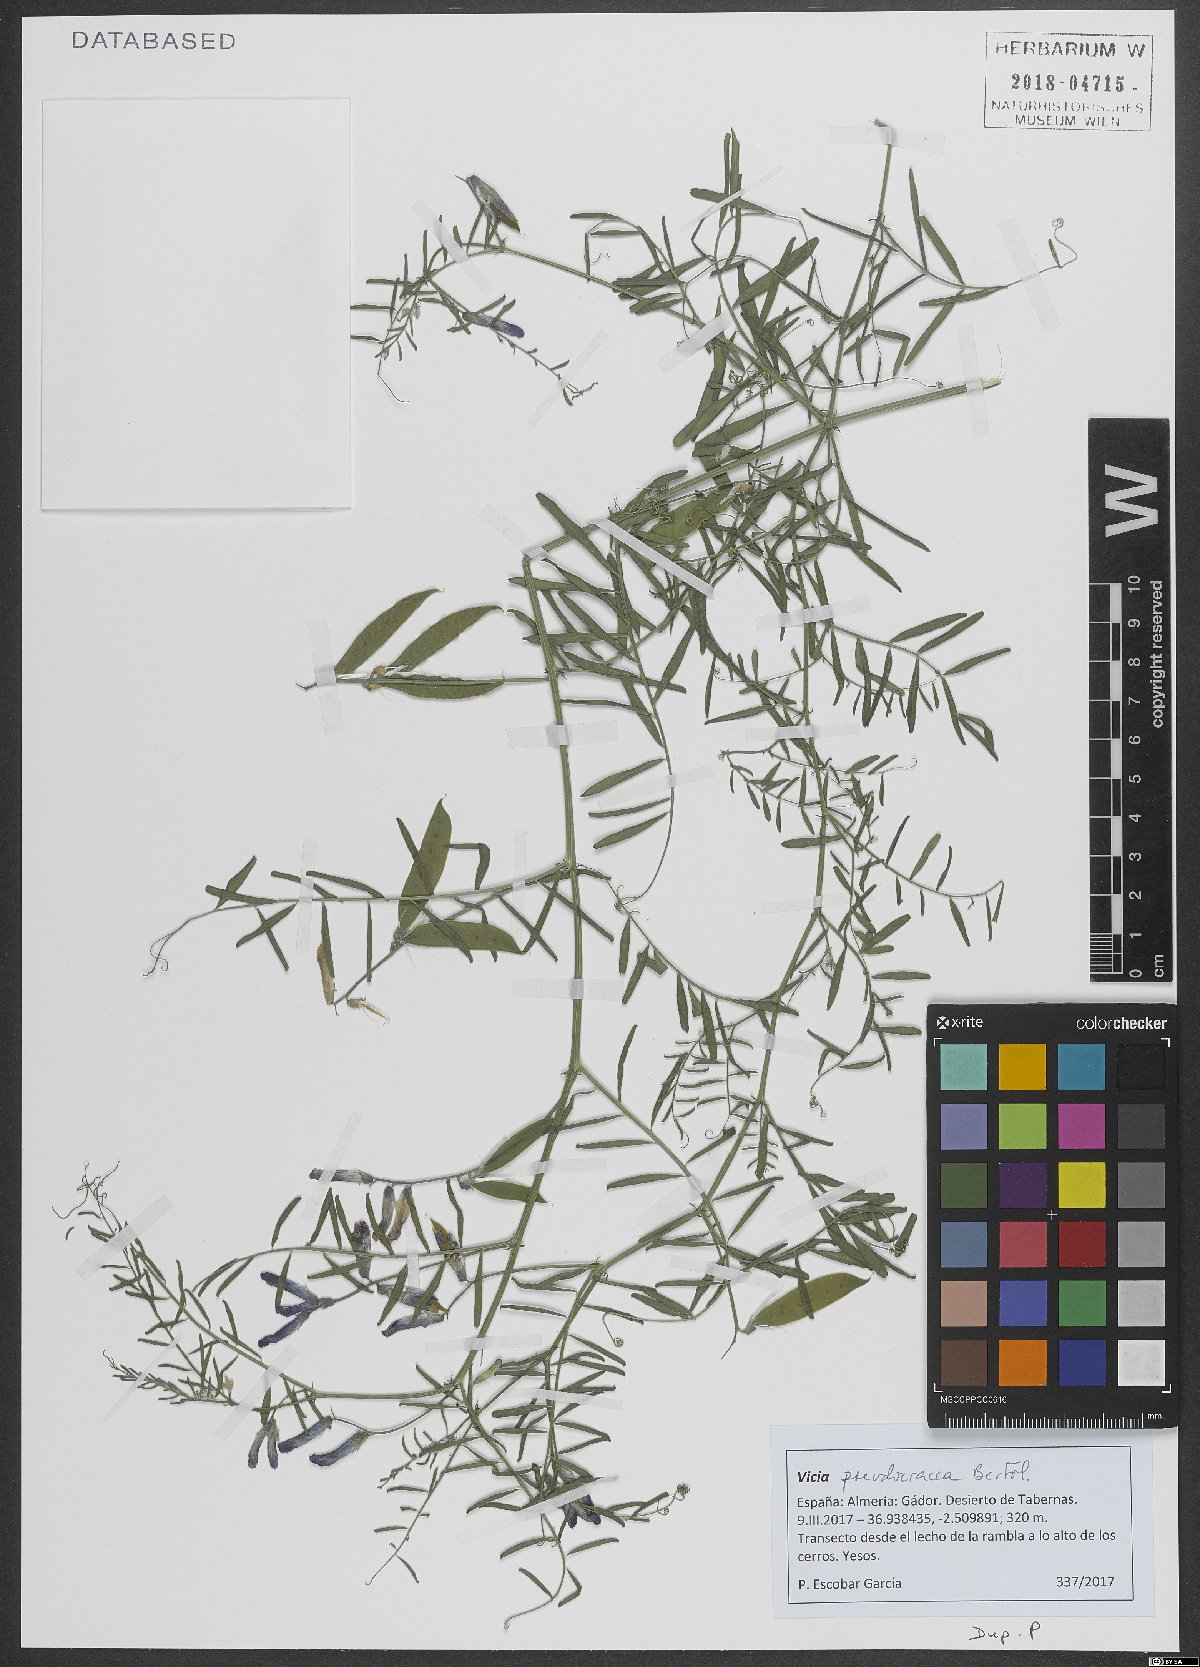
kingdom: Plantae
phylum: Tracheophyta
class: Magnoliopsida
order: Fabales
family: Fabaceae
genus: Vicia
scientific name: Vicia villosa
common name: Fodder vetch
